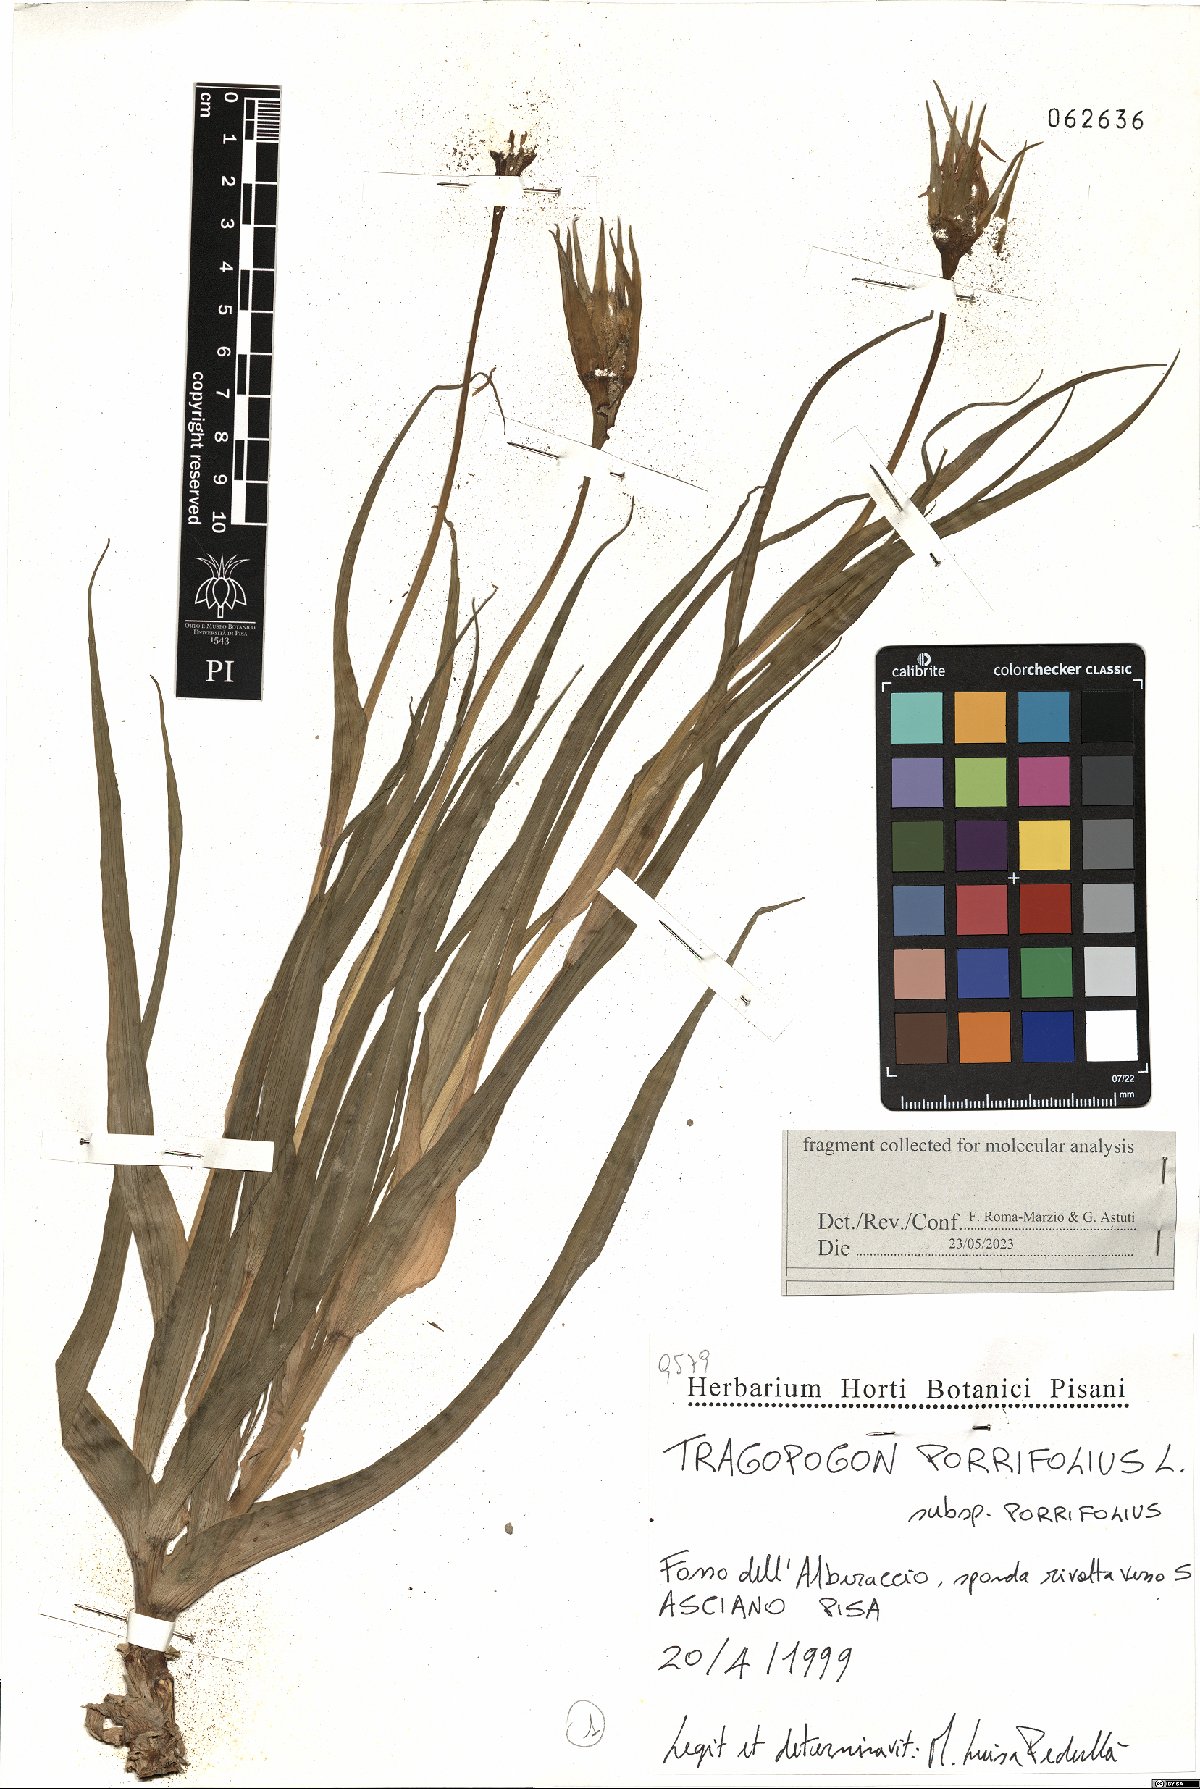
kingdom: Plantae
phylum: Tracheophyta
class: Magnoliopsida
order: Asterales
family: Asteraceae
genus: Tragopogon
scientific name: Tragopogon porrifolius
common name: Salsify
